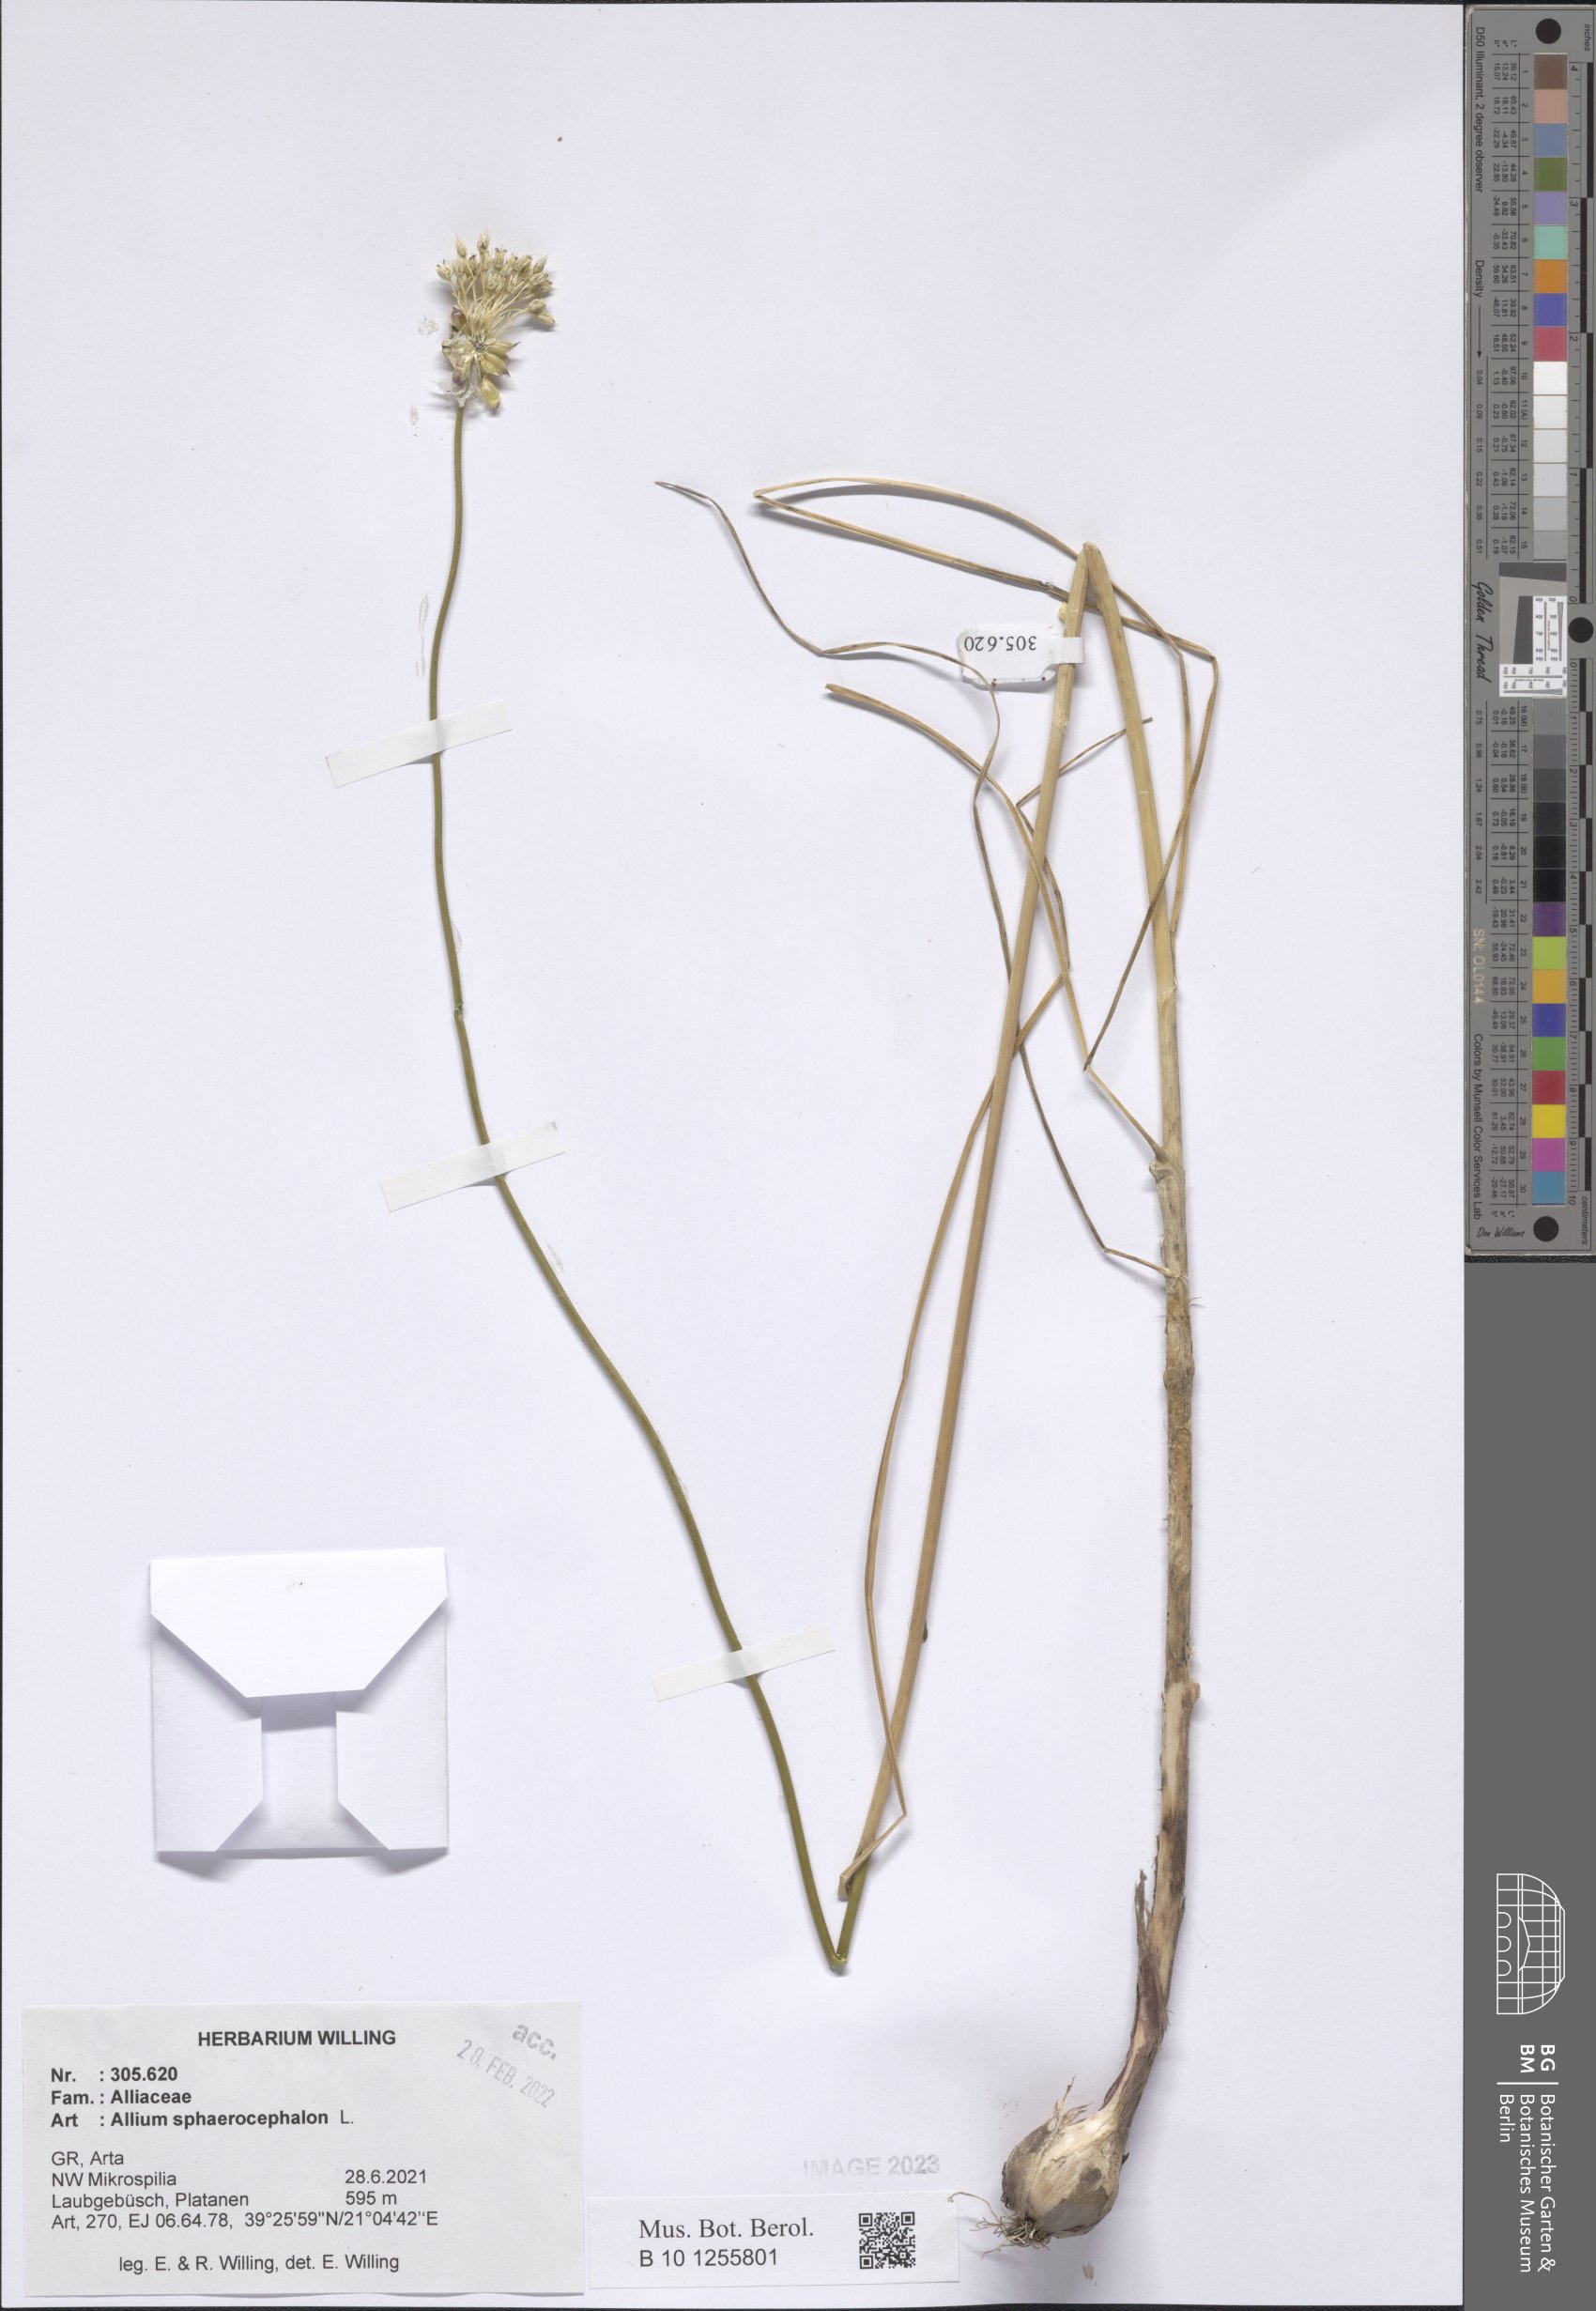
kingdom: Plantae
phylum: Tracheophyta
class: Liliopsida
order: Asparagales
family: Amaryllidaceae
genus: Allium
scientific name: Allium sphaerocephalon
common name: Round-headed leek
